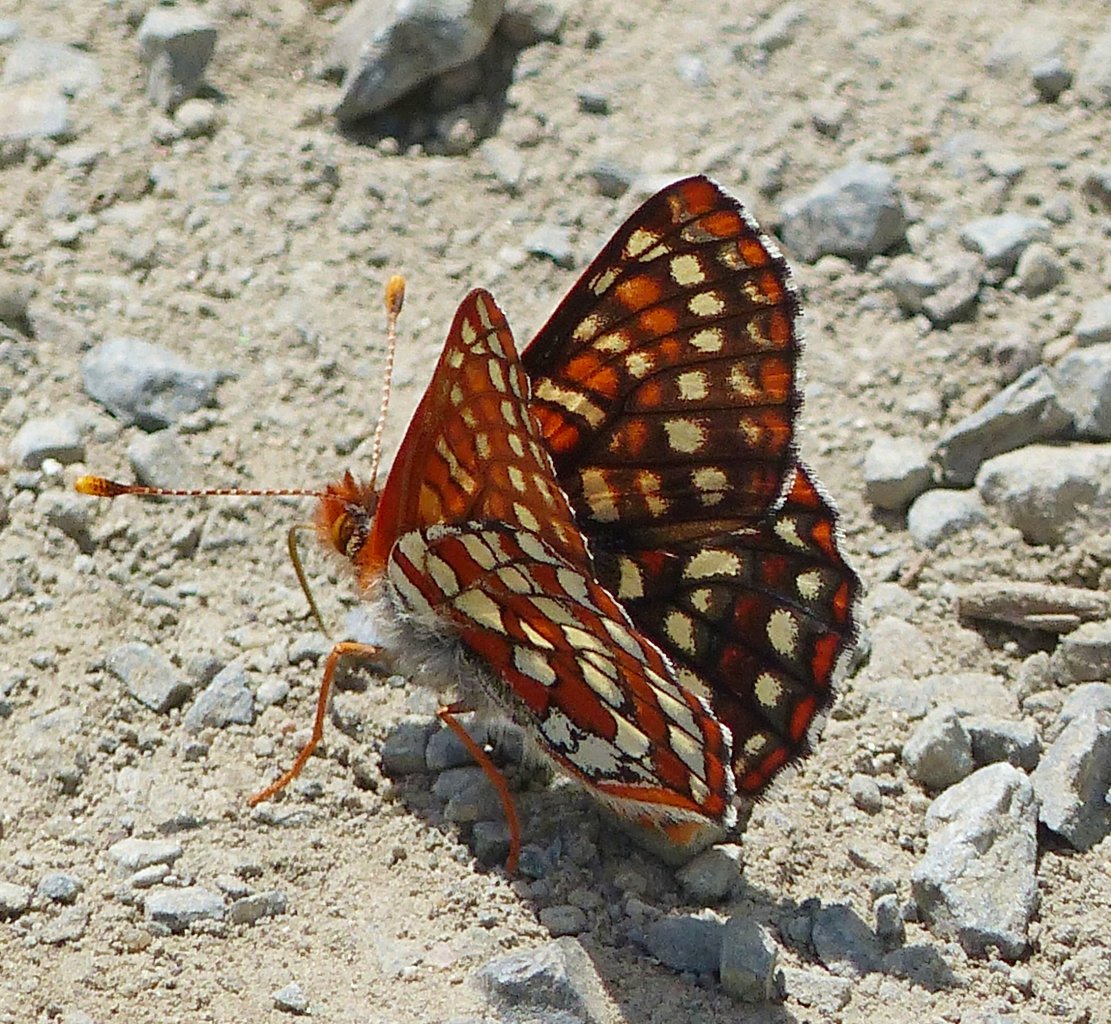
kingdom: Animalia
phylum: Arthropoda
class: Insecta
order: Lepidoptera
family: Nymphalidae
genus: Occidryas
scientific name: Occidryas anicia
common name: Anicia Checkerspot
